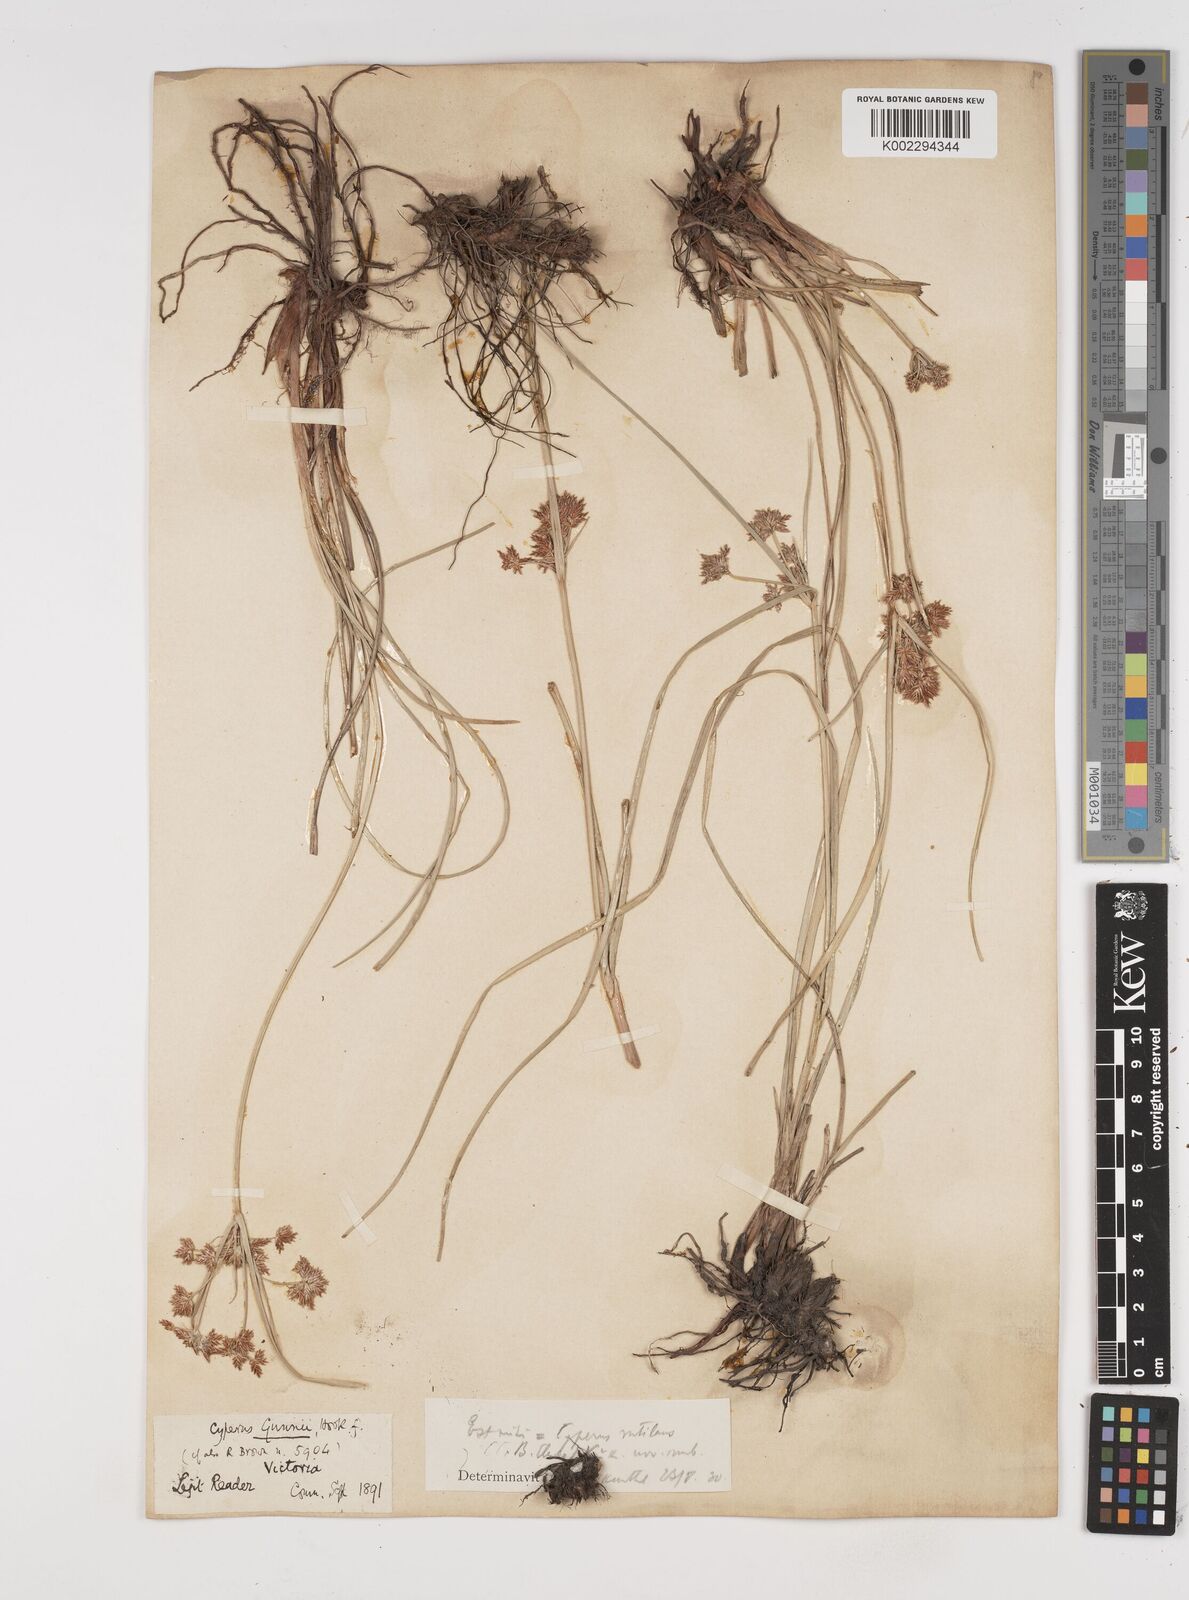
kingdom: Plantae
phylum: Tracheophyta
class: Liliopsida
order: Poales
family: Cyperaceae
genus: Cyperus
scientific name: Cyperus lhotskyanus
